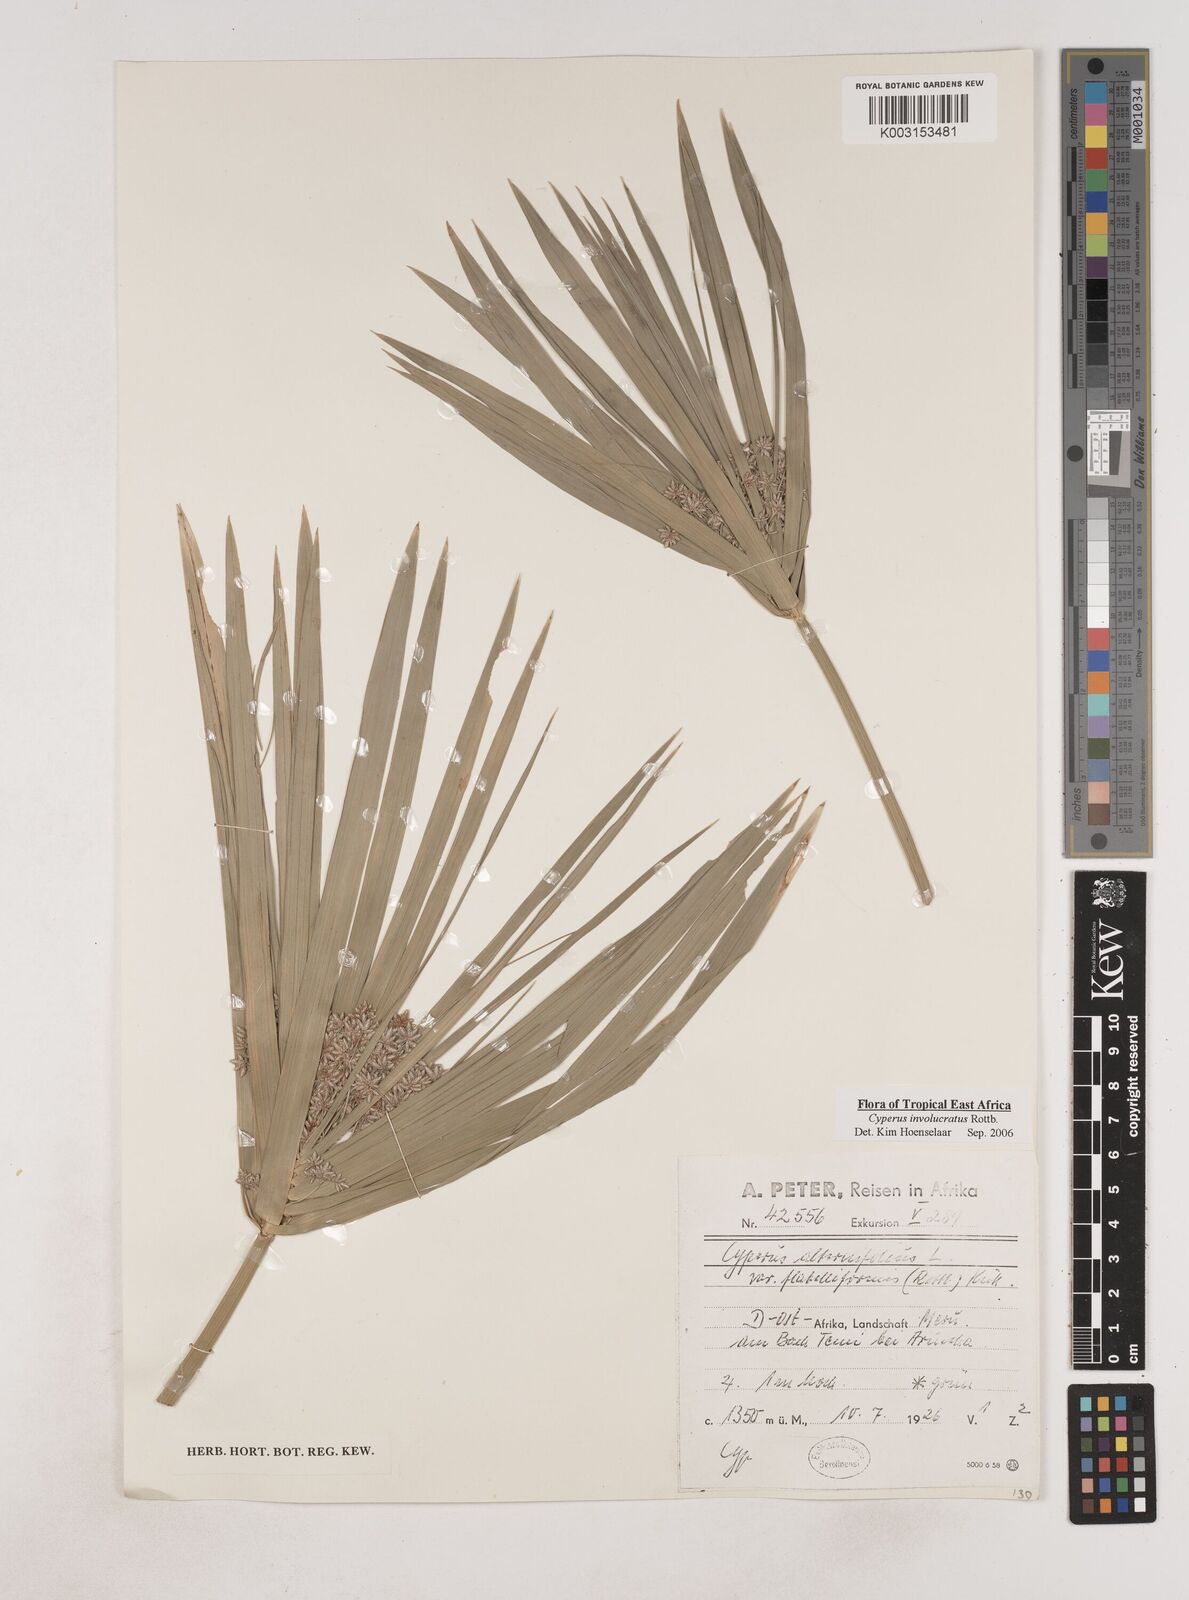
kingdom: Plantae
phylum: Tracheophyta
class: Liliopsida
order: Poales
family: Cyperaceae
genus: Cyperus
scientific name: Cyperus alternifolius
